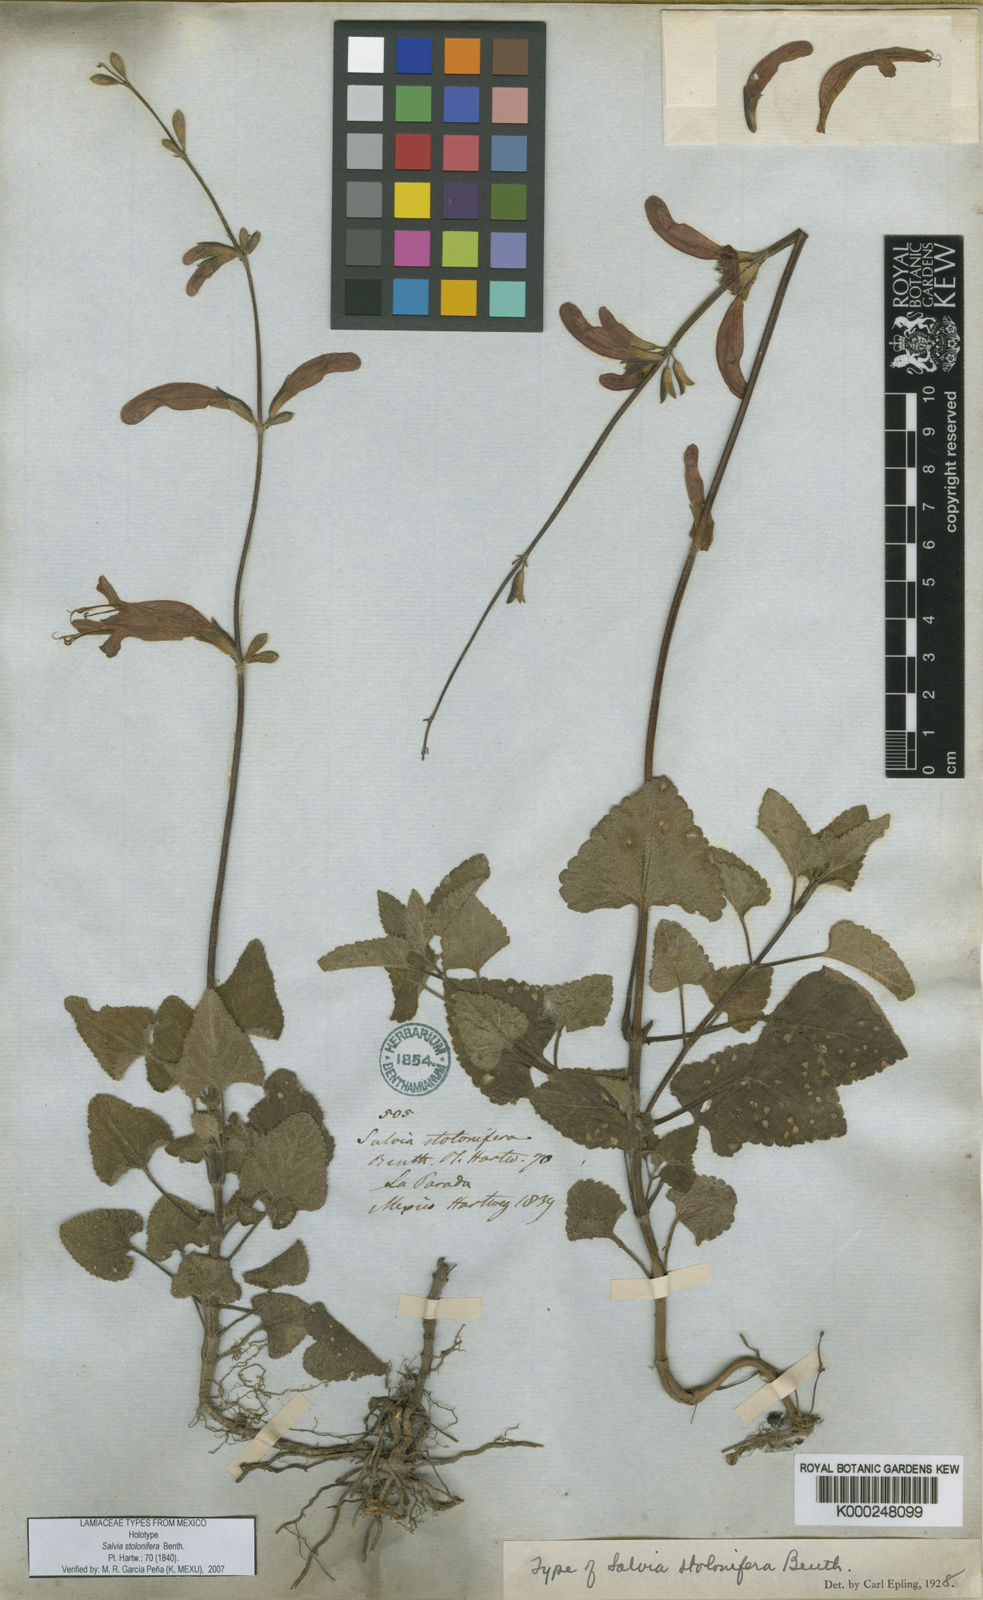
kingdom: Plantae
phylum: Tracheophyta
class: Magnoliopsida
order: Lamiales
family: Lamiaceae
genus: Salvia
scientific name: Salvia stolonifera
